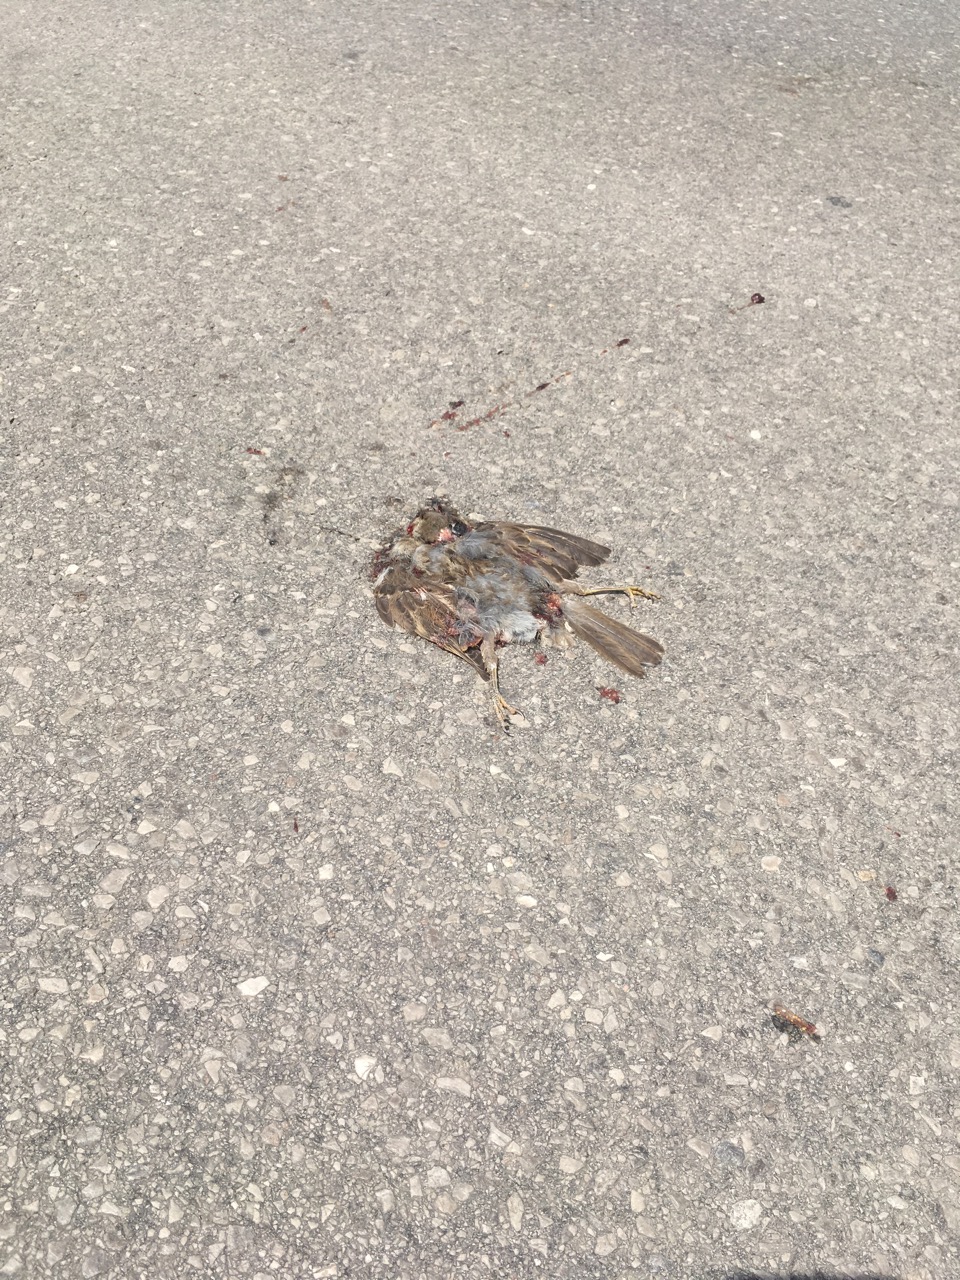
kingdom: Animalia
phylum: Chordata
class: Aves
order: Passeriformes
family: Passeridae
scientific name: Passeridae
